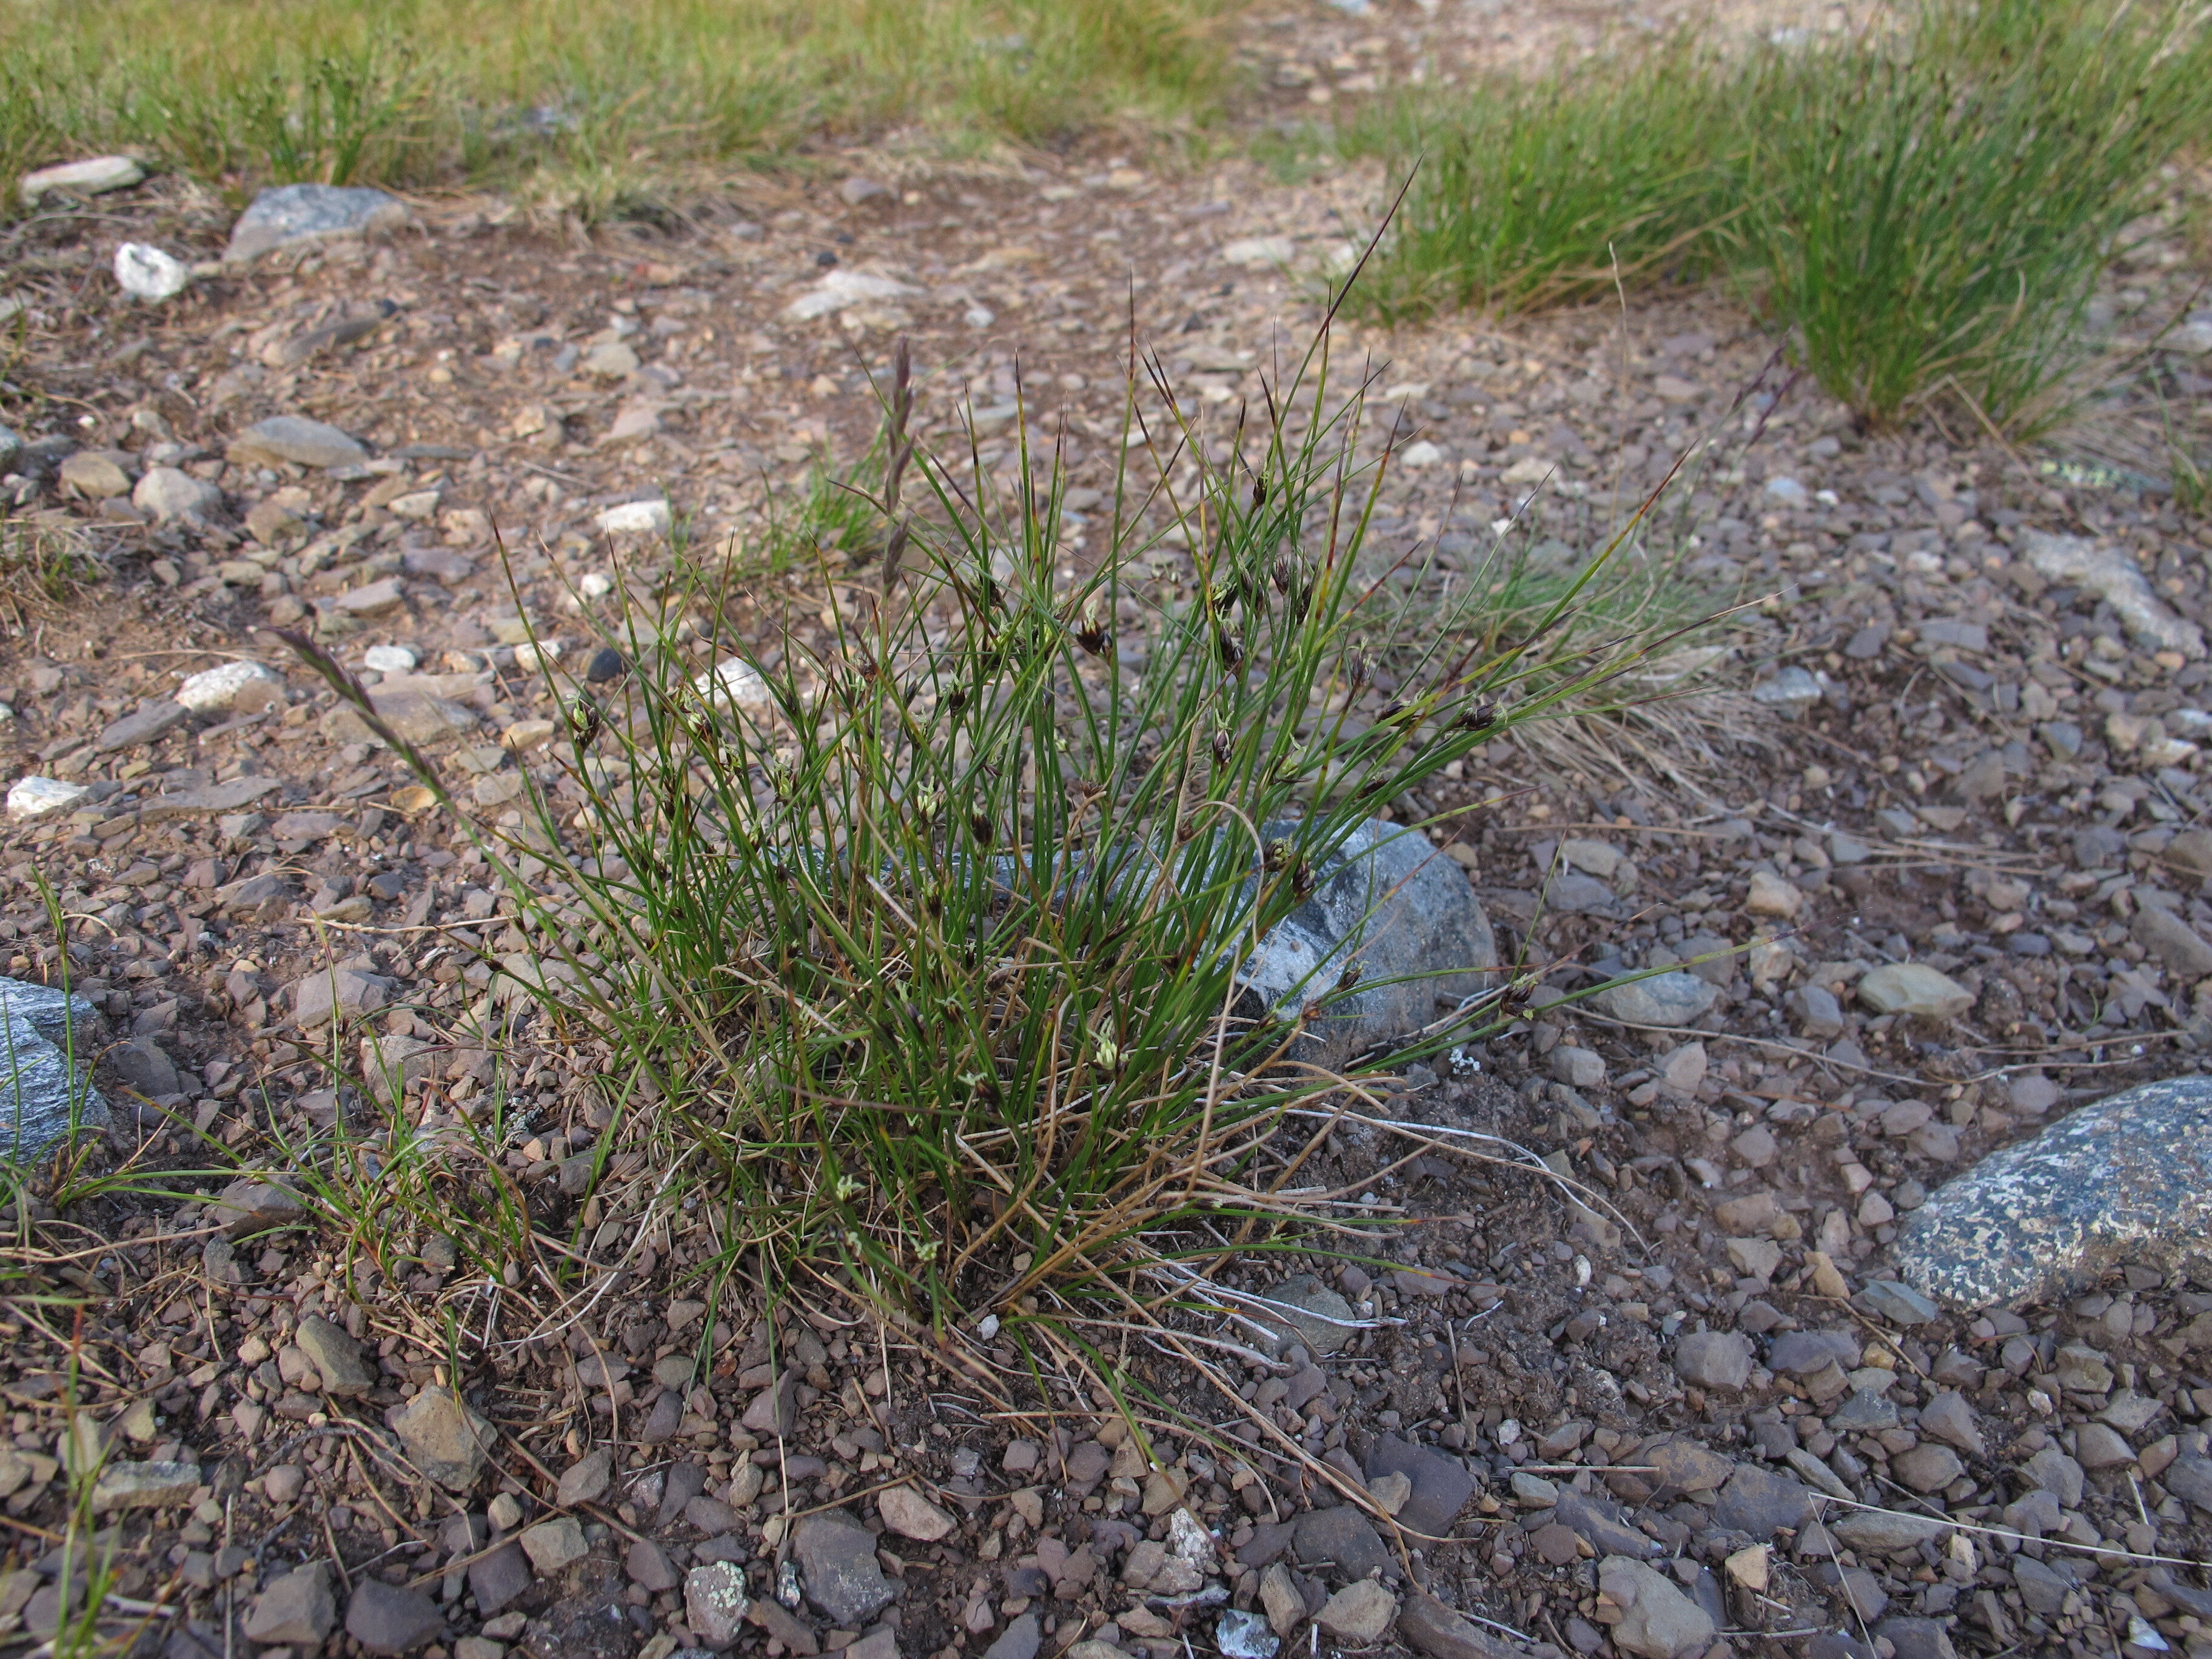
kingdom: Plantae
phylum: Tracheophyta
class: Liliopsida
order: Poales
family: Juncaceae
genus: Oreojuncus
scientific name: Oreojuncus trifidus
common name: Highland rush
